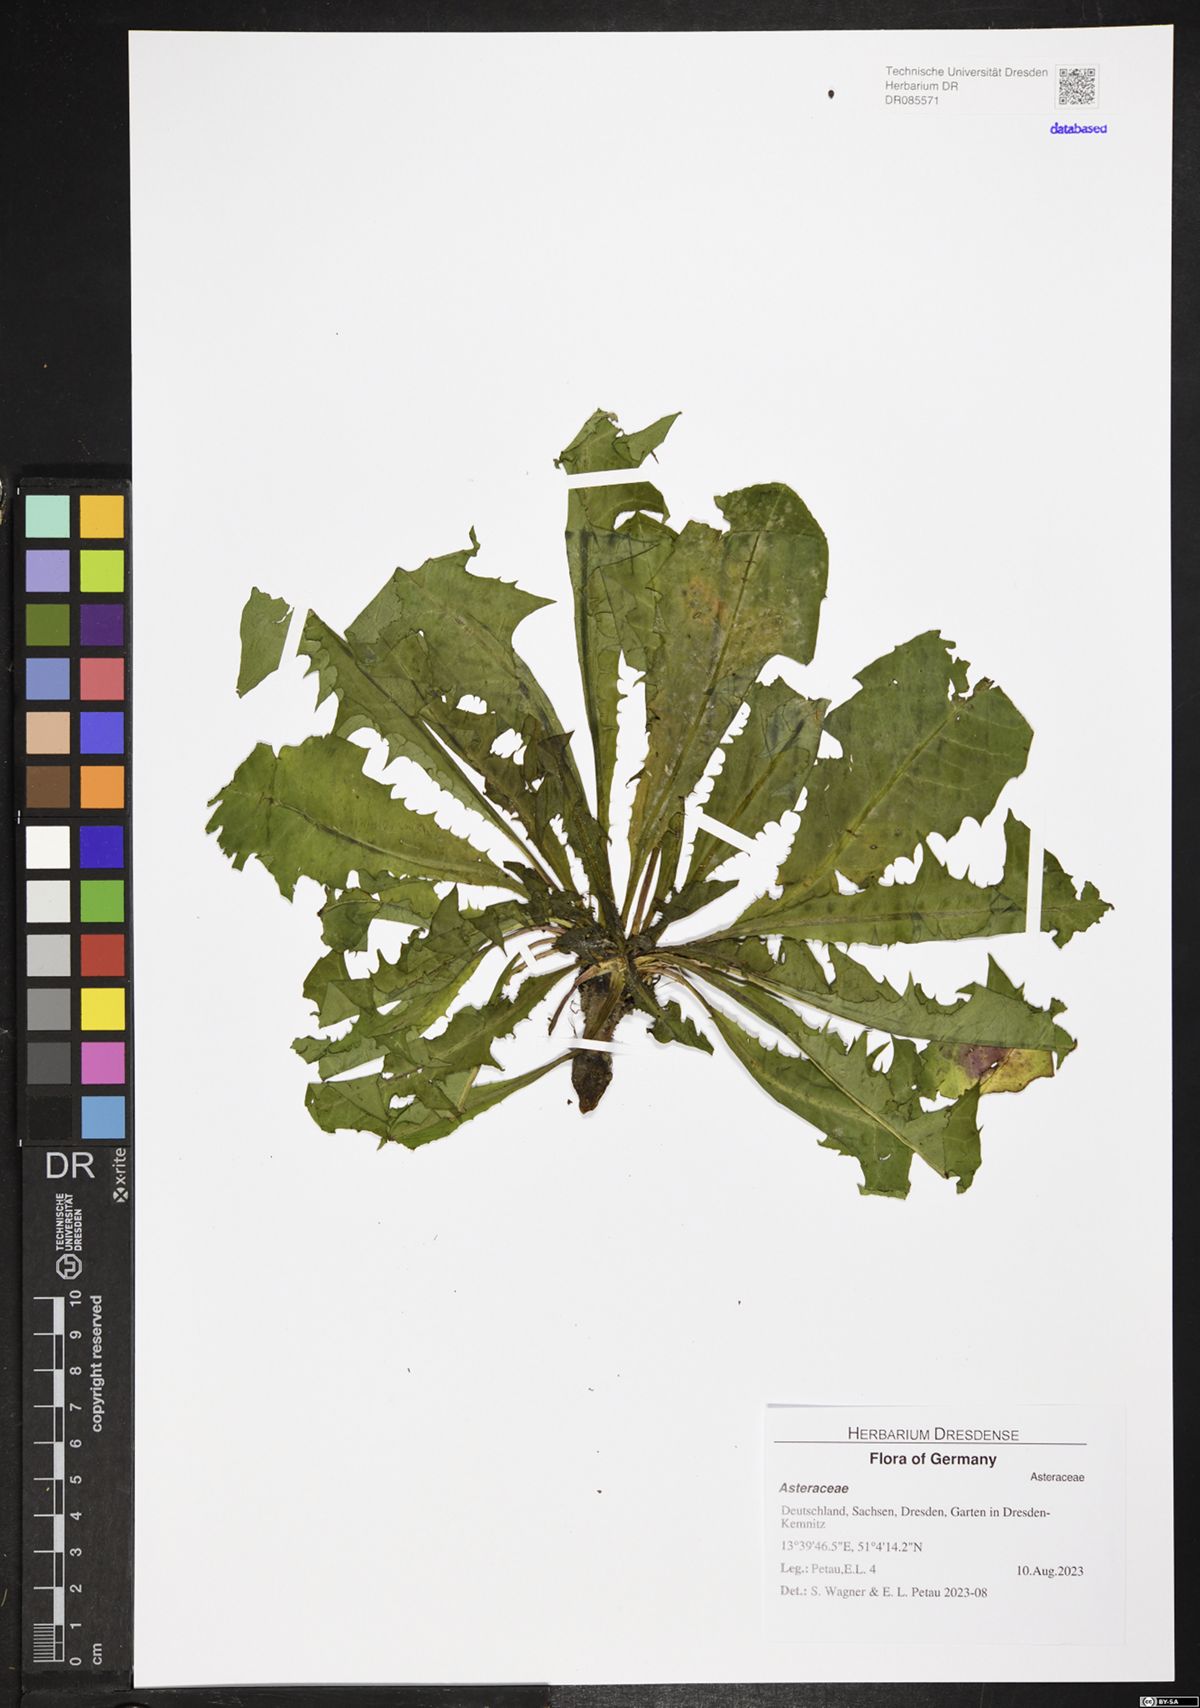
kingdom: Plantae
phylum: Tracheophyta
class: Magnoliopsida
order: Asterales
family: Asteraceae
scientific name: Asteraceae
